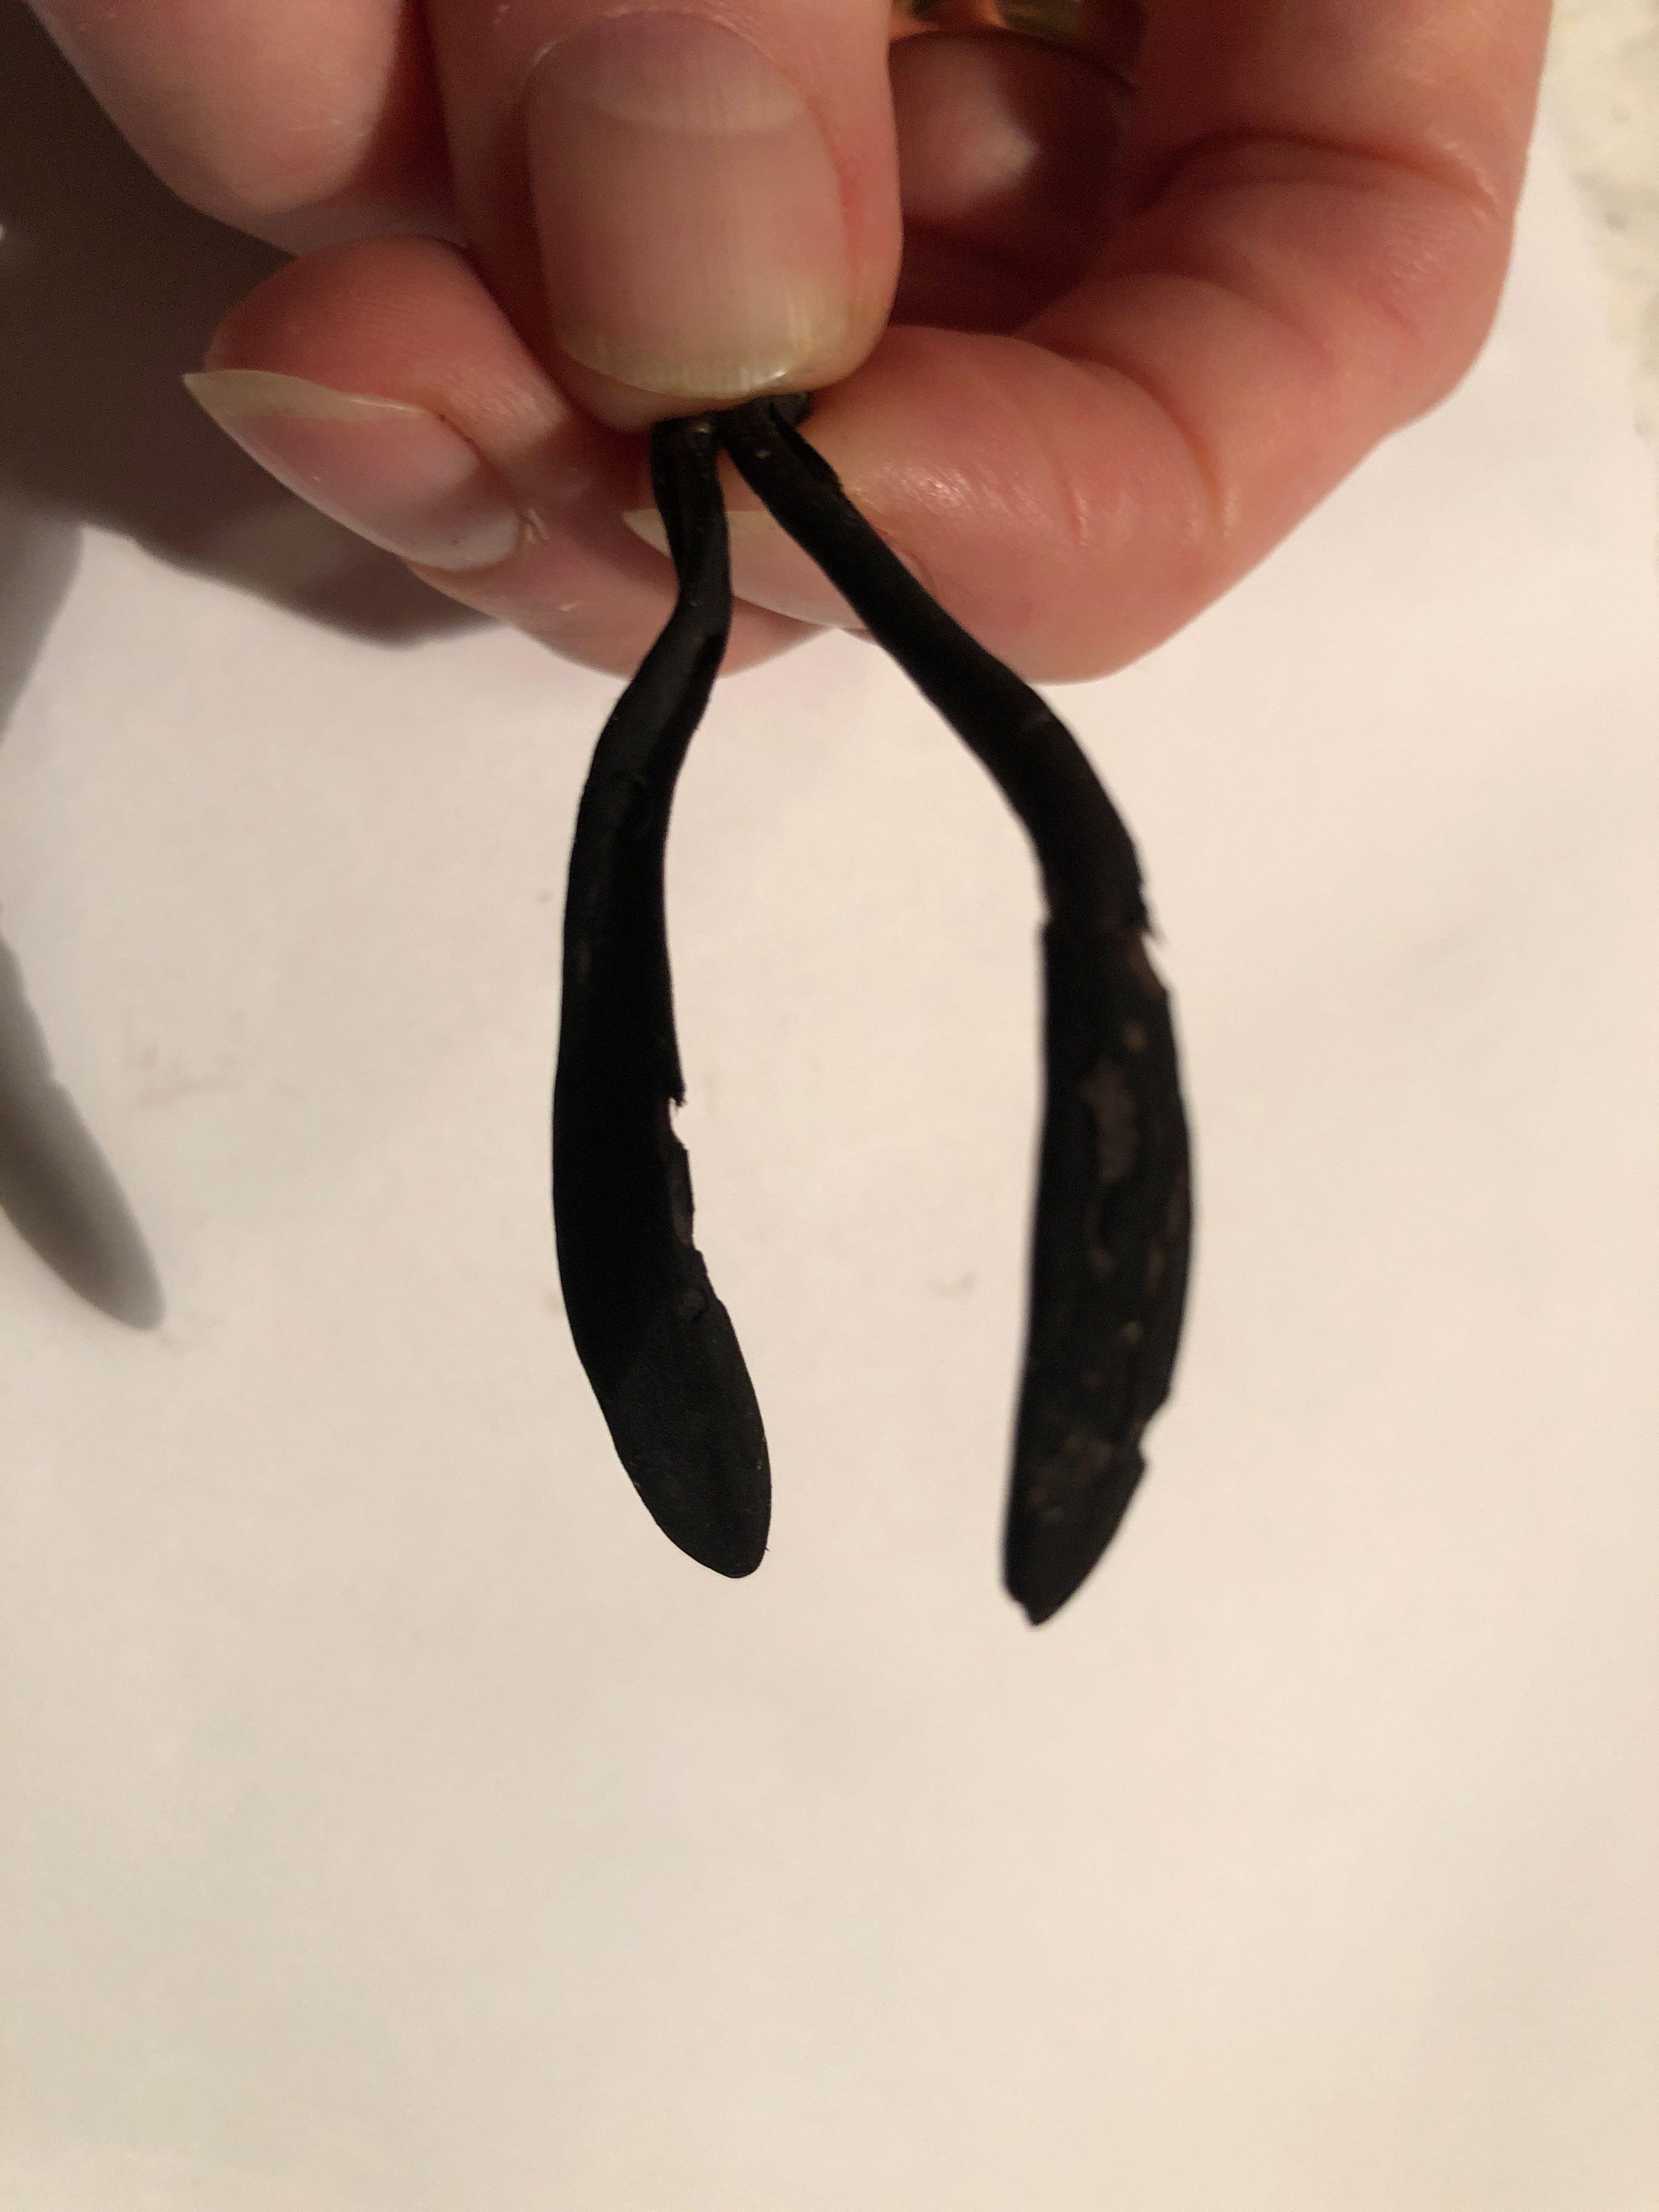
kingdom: Fungi
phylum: Ascomycota
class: Geoglossomycetes
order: Geoglossales
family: Geoglossaceae
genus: Geoglossum
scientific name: Geoglossum
